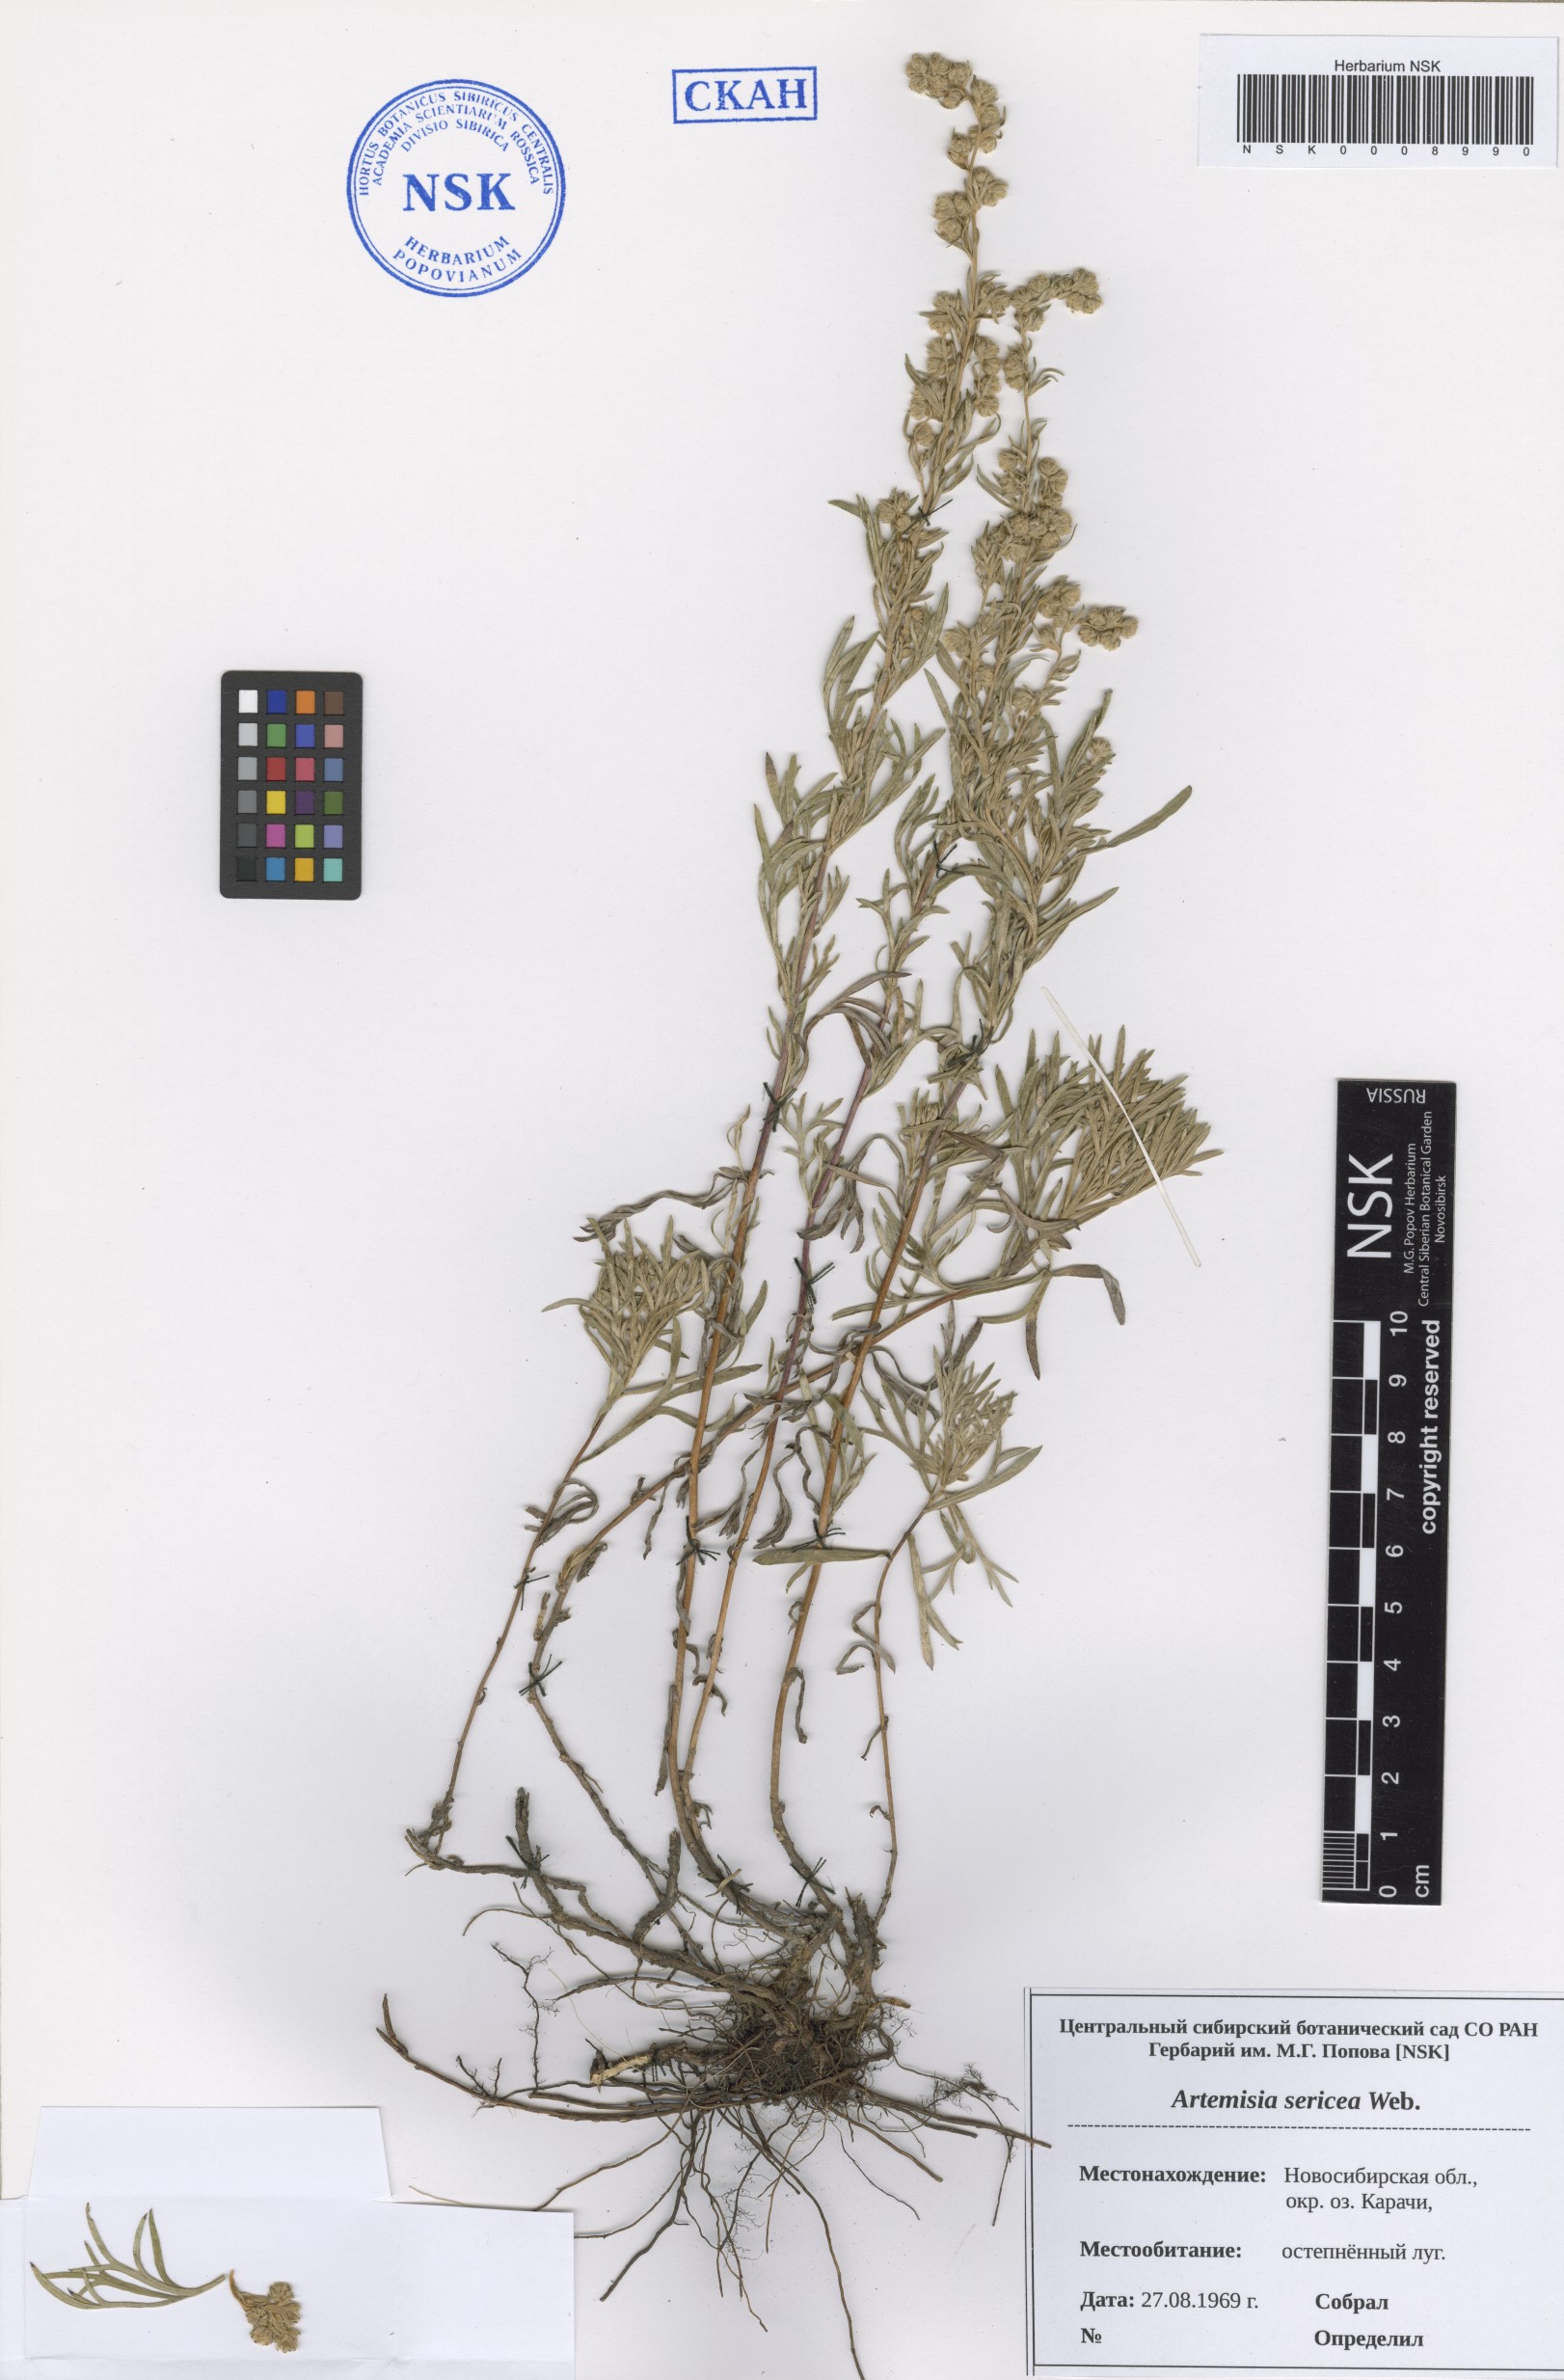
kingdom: Plantae
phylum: Tracheophyta
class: Magnoliopsida
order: Asterales
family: Asteraceae
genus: Artemisia
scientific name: Artemisia sericea
